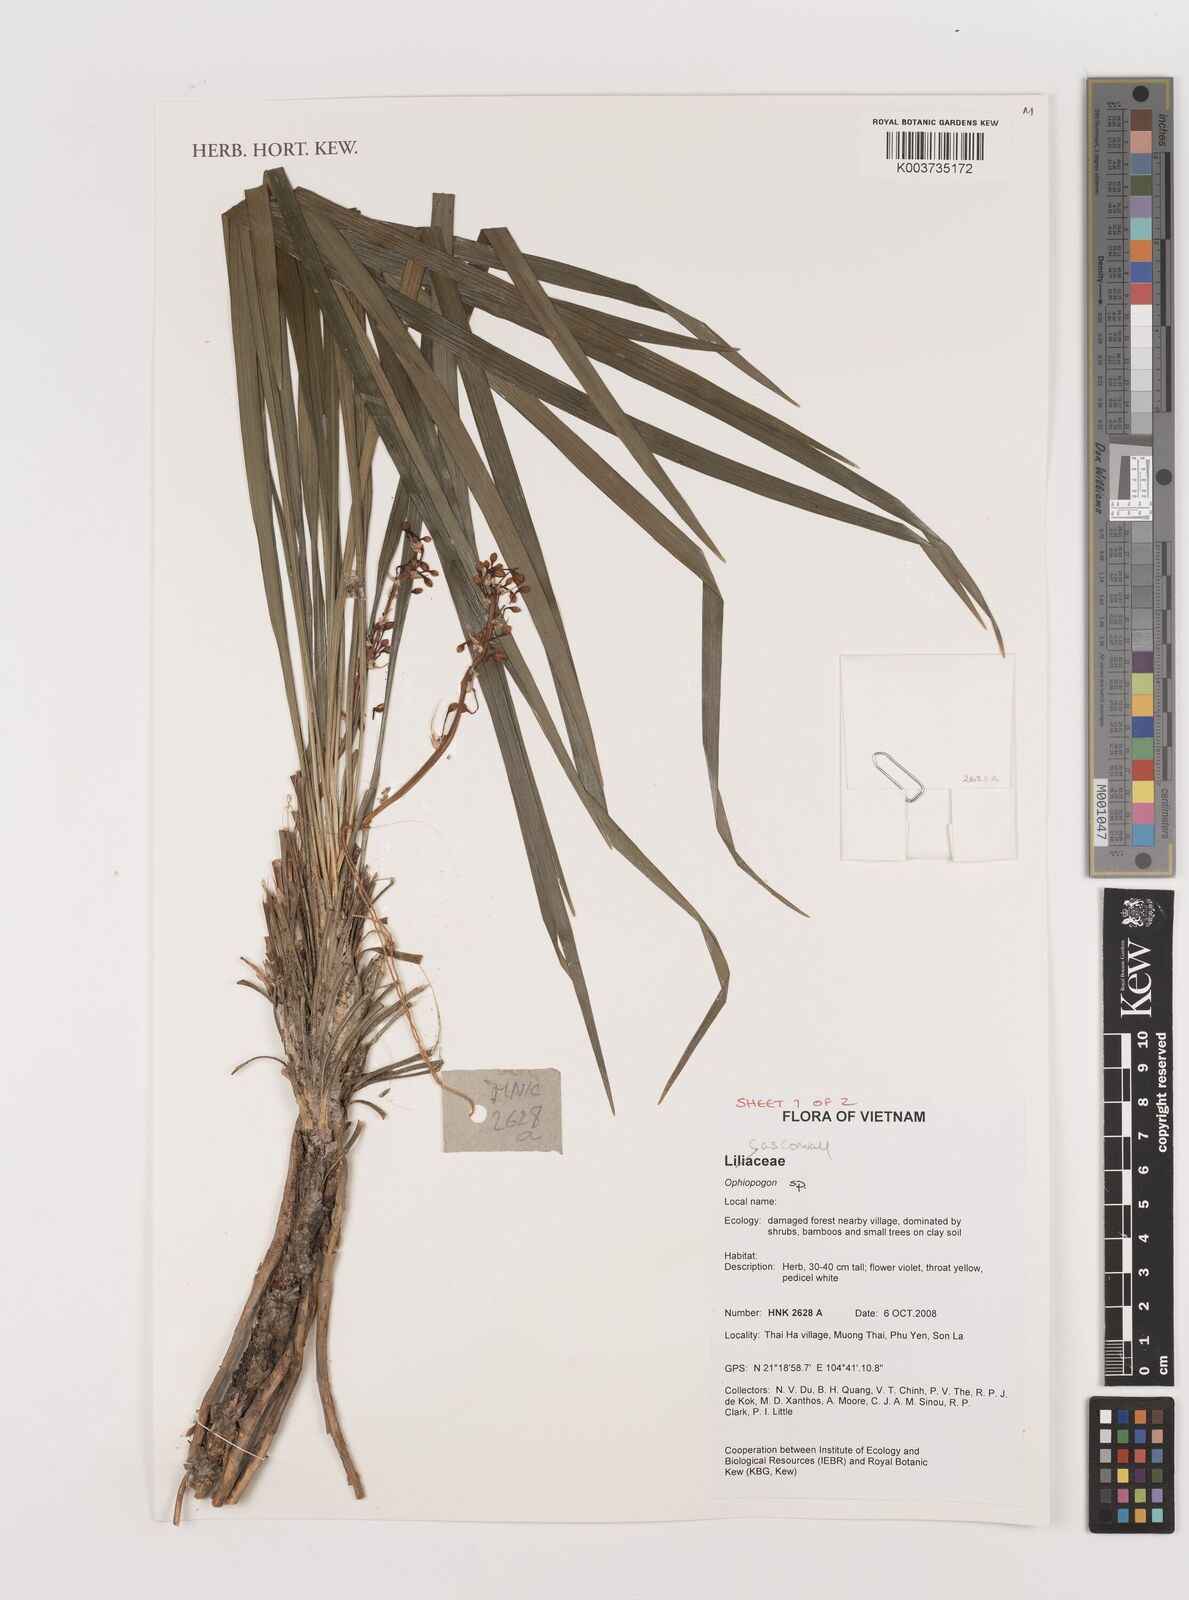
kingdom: Plantae
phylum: Tracheophyta
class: Liliopsida
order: Asparagales
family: Asparagaceae
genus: Ophiopogon
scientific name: Ophiopogon
